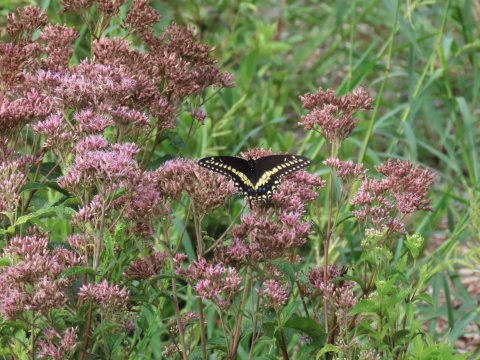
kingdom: Animalia
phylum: Arthropoda
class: Insecta
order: Lepidoptera
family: Papilionidae
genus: Papilio
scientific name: Papilio polyxenes
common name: Black Swallowtail
